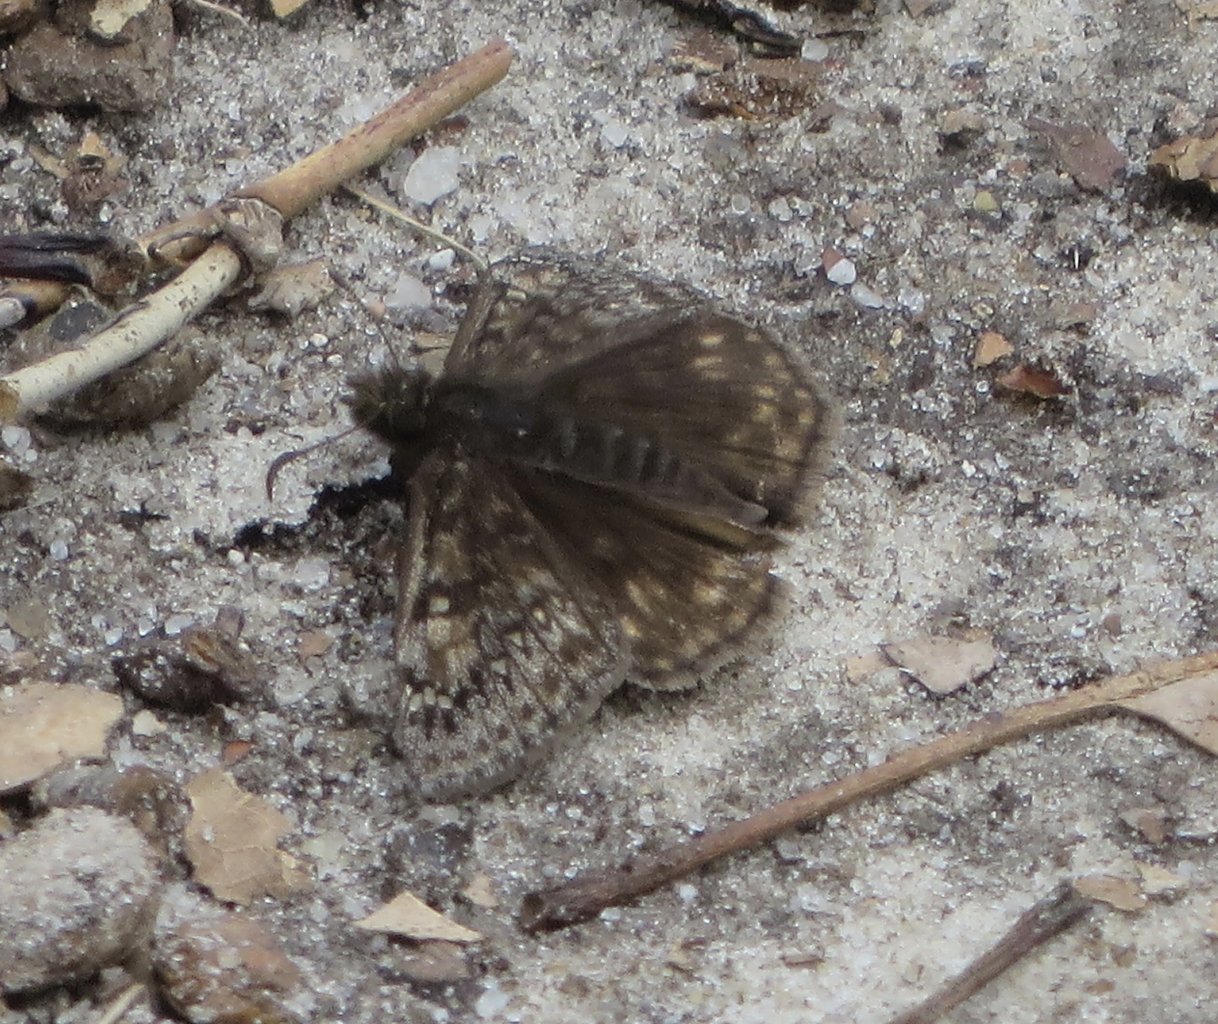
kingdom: Animalia
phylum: Arthropoda
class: Insecta
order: Lepidoptera
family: Hesperiidae
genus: Gesta
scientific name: Gesta
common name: Juvenal's Duskywing
